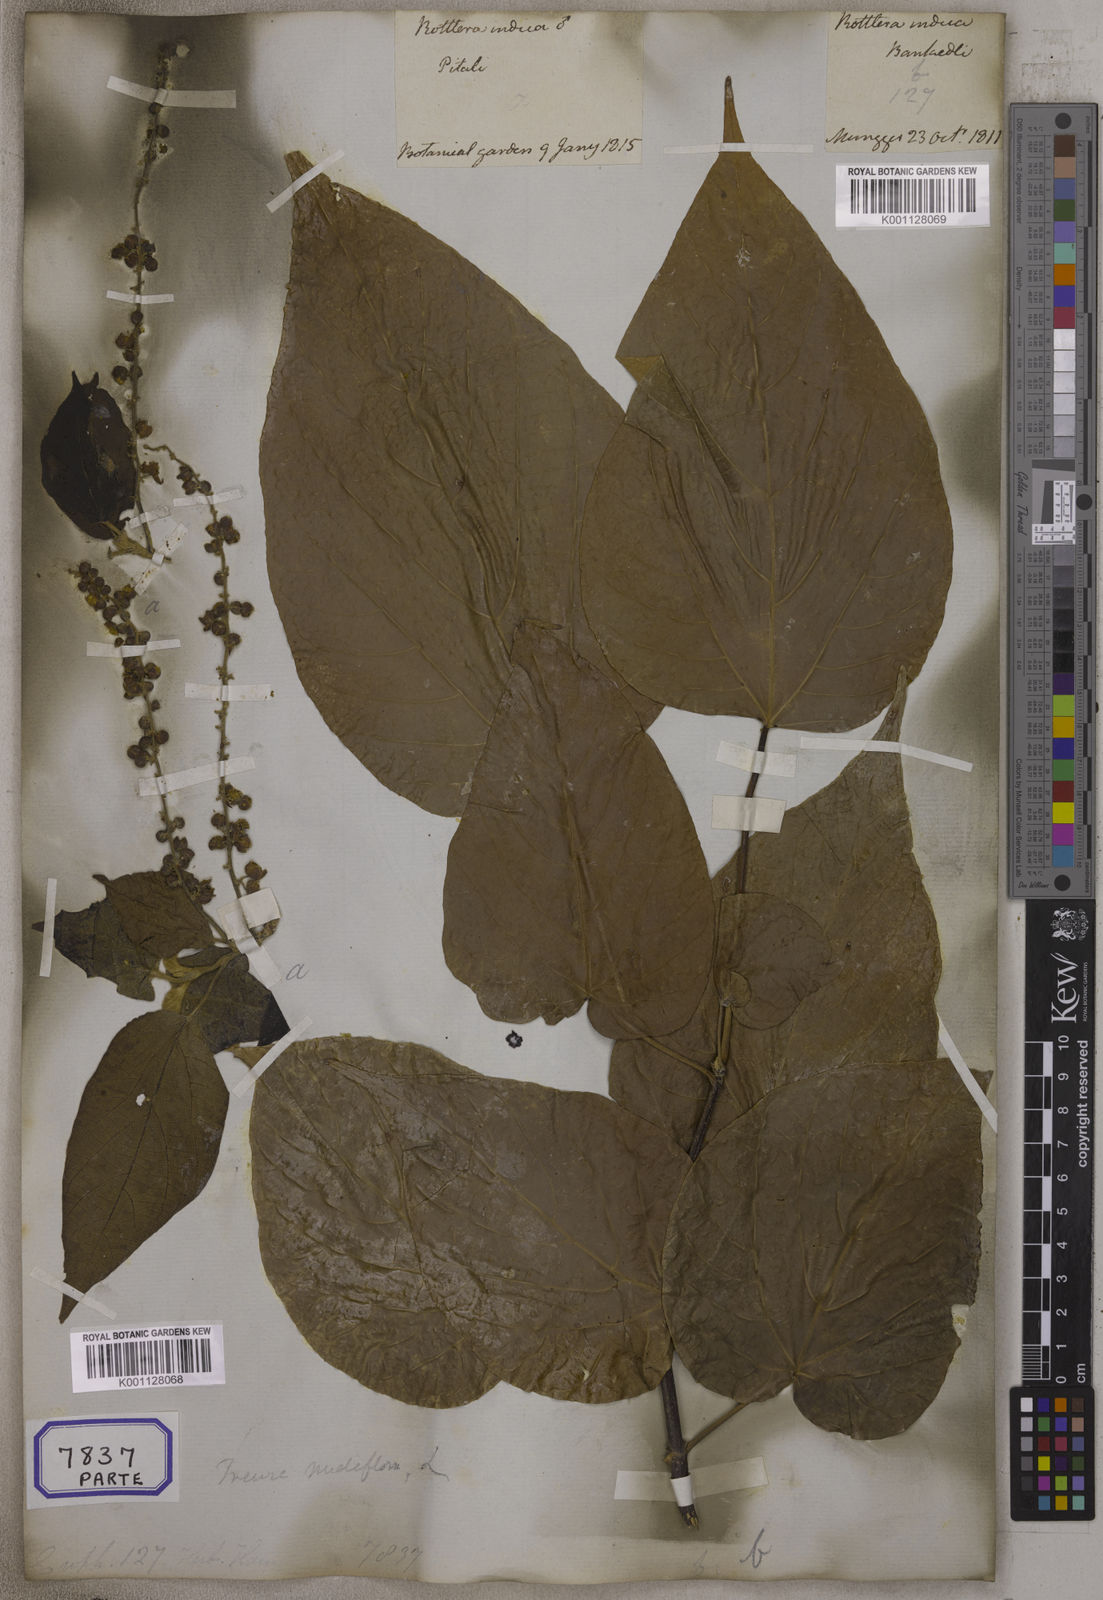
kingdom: Plantae
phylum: Tracheophyta
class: Magnoliopsida
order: Malpighiales
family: Euphorbiaceae
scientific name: Euphorbiaceae
